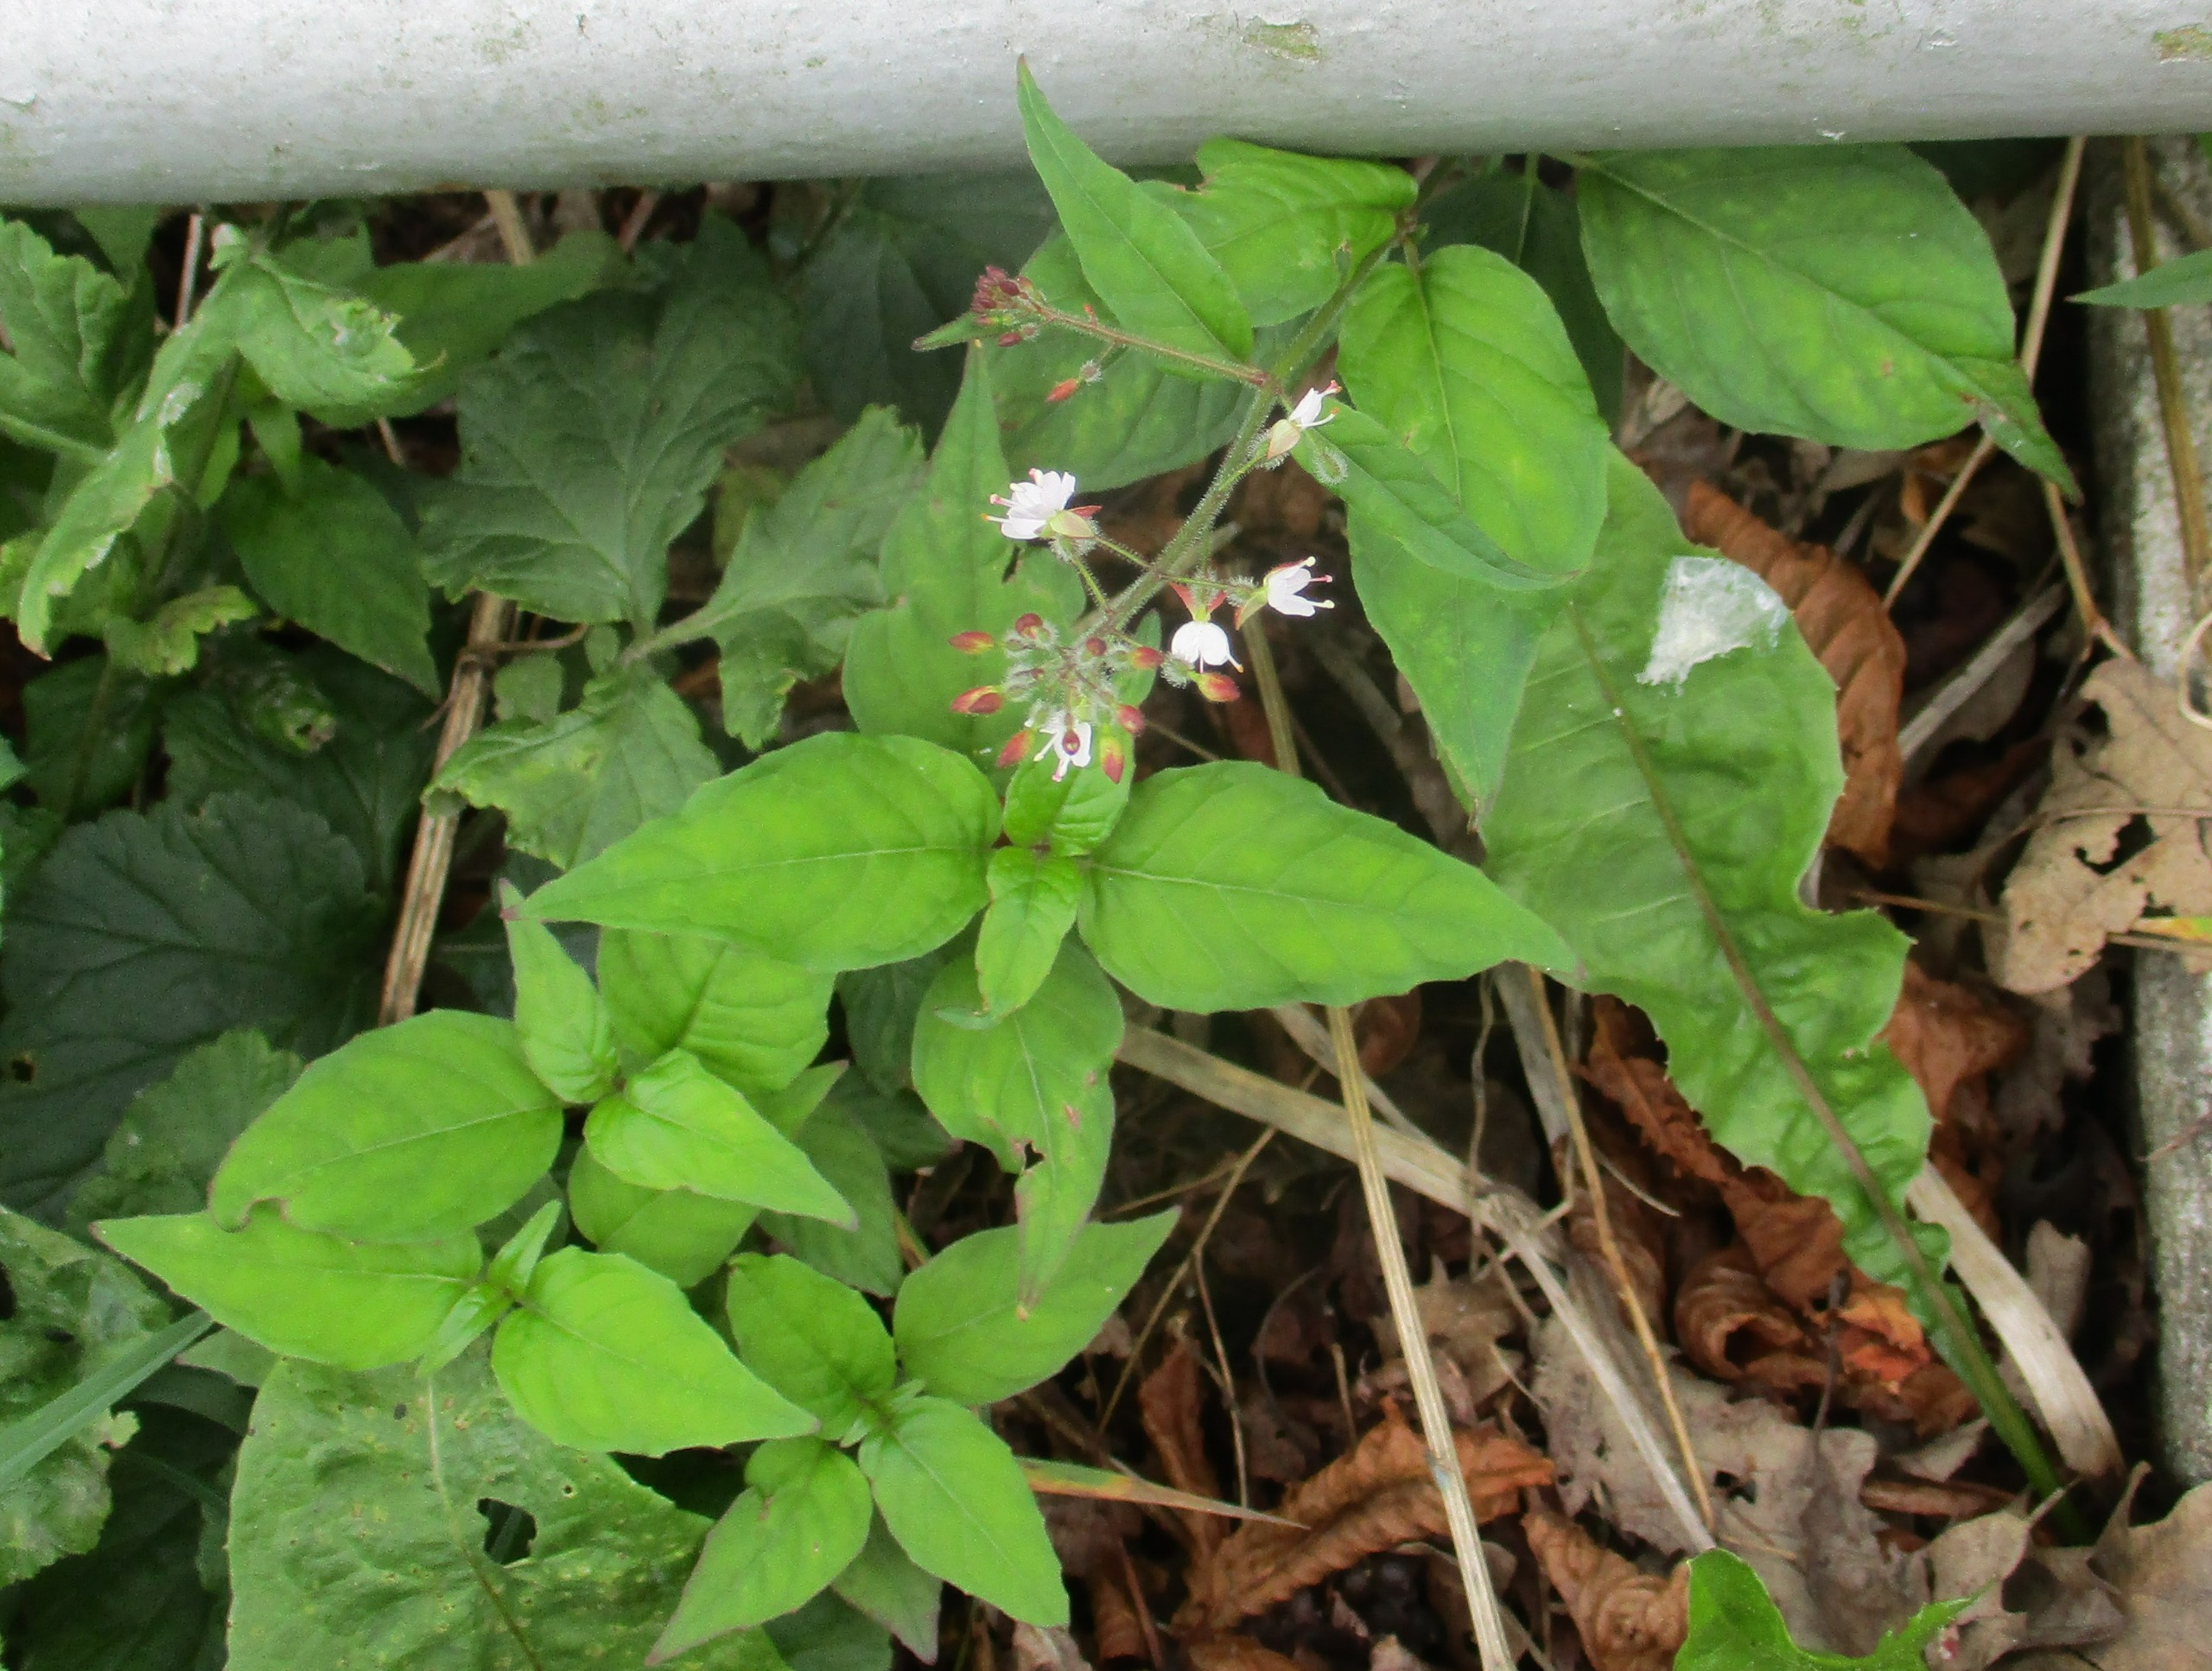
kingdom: Plantae
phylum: Tracheophyta
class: Magnoliopsida
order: Myrtales
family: Onagraceae
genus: Circaea
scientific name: Circaea lutetiana
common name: Dunet steffensurt
